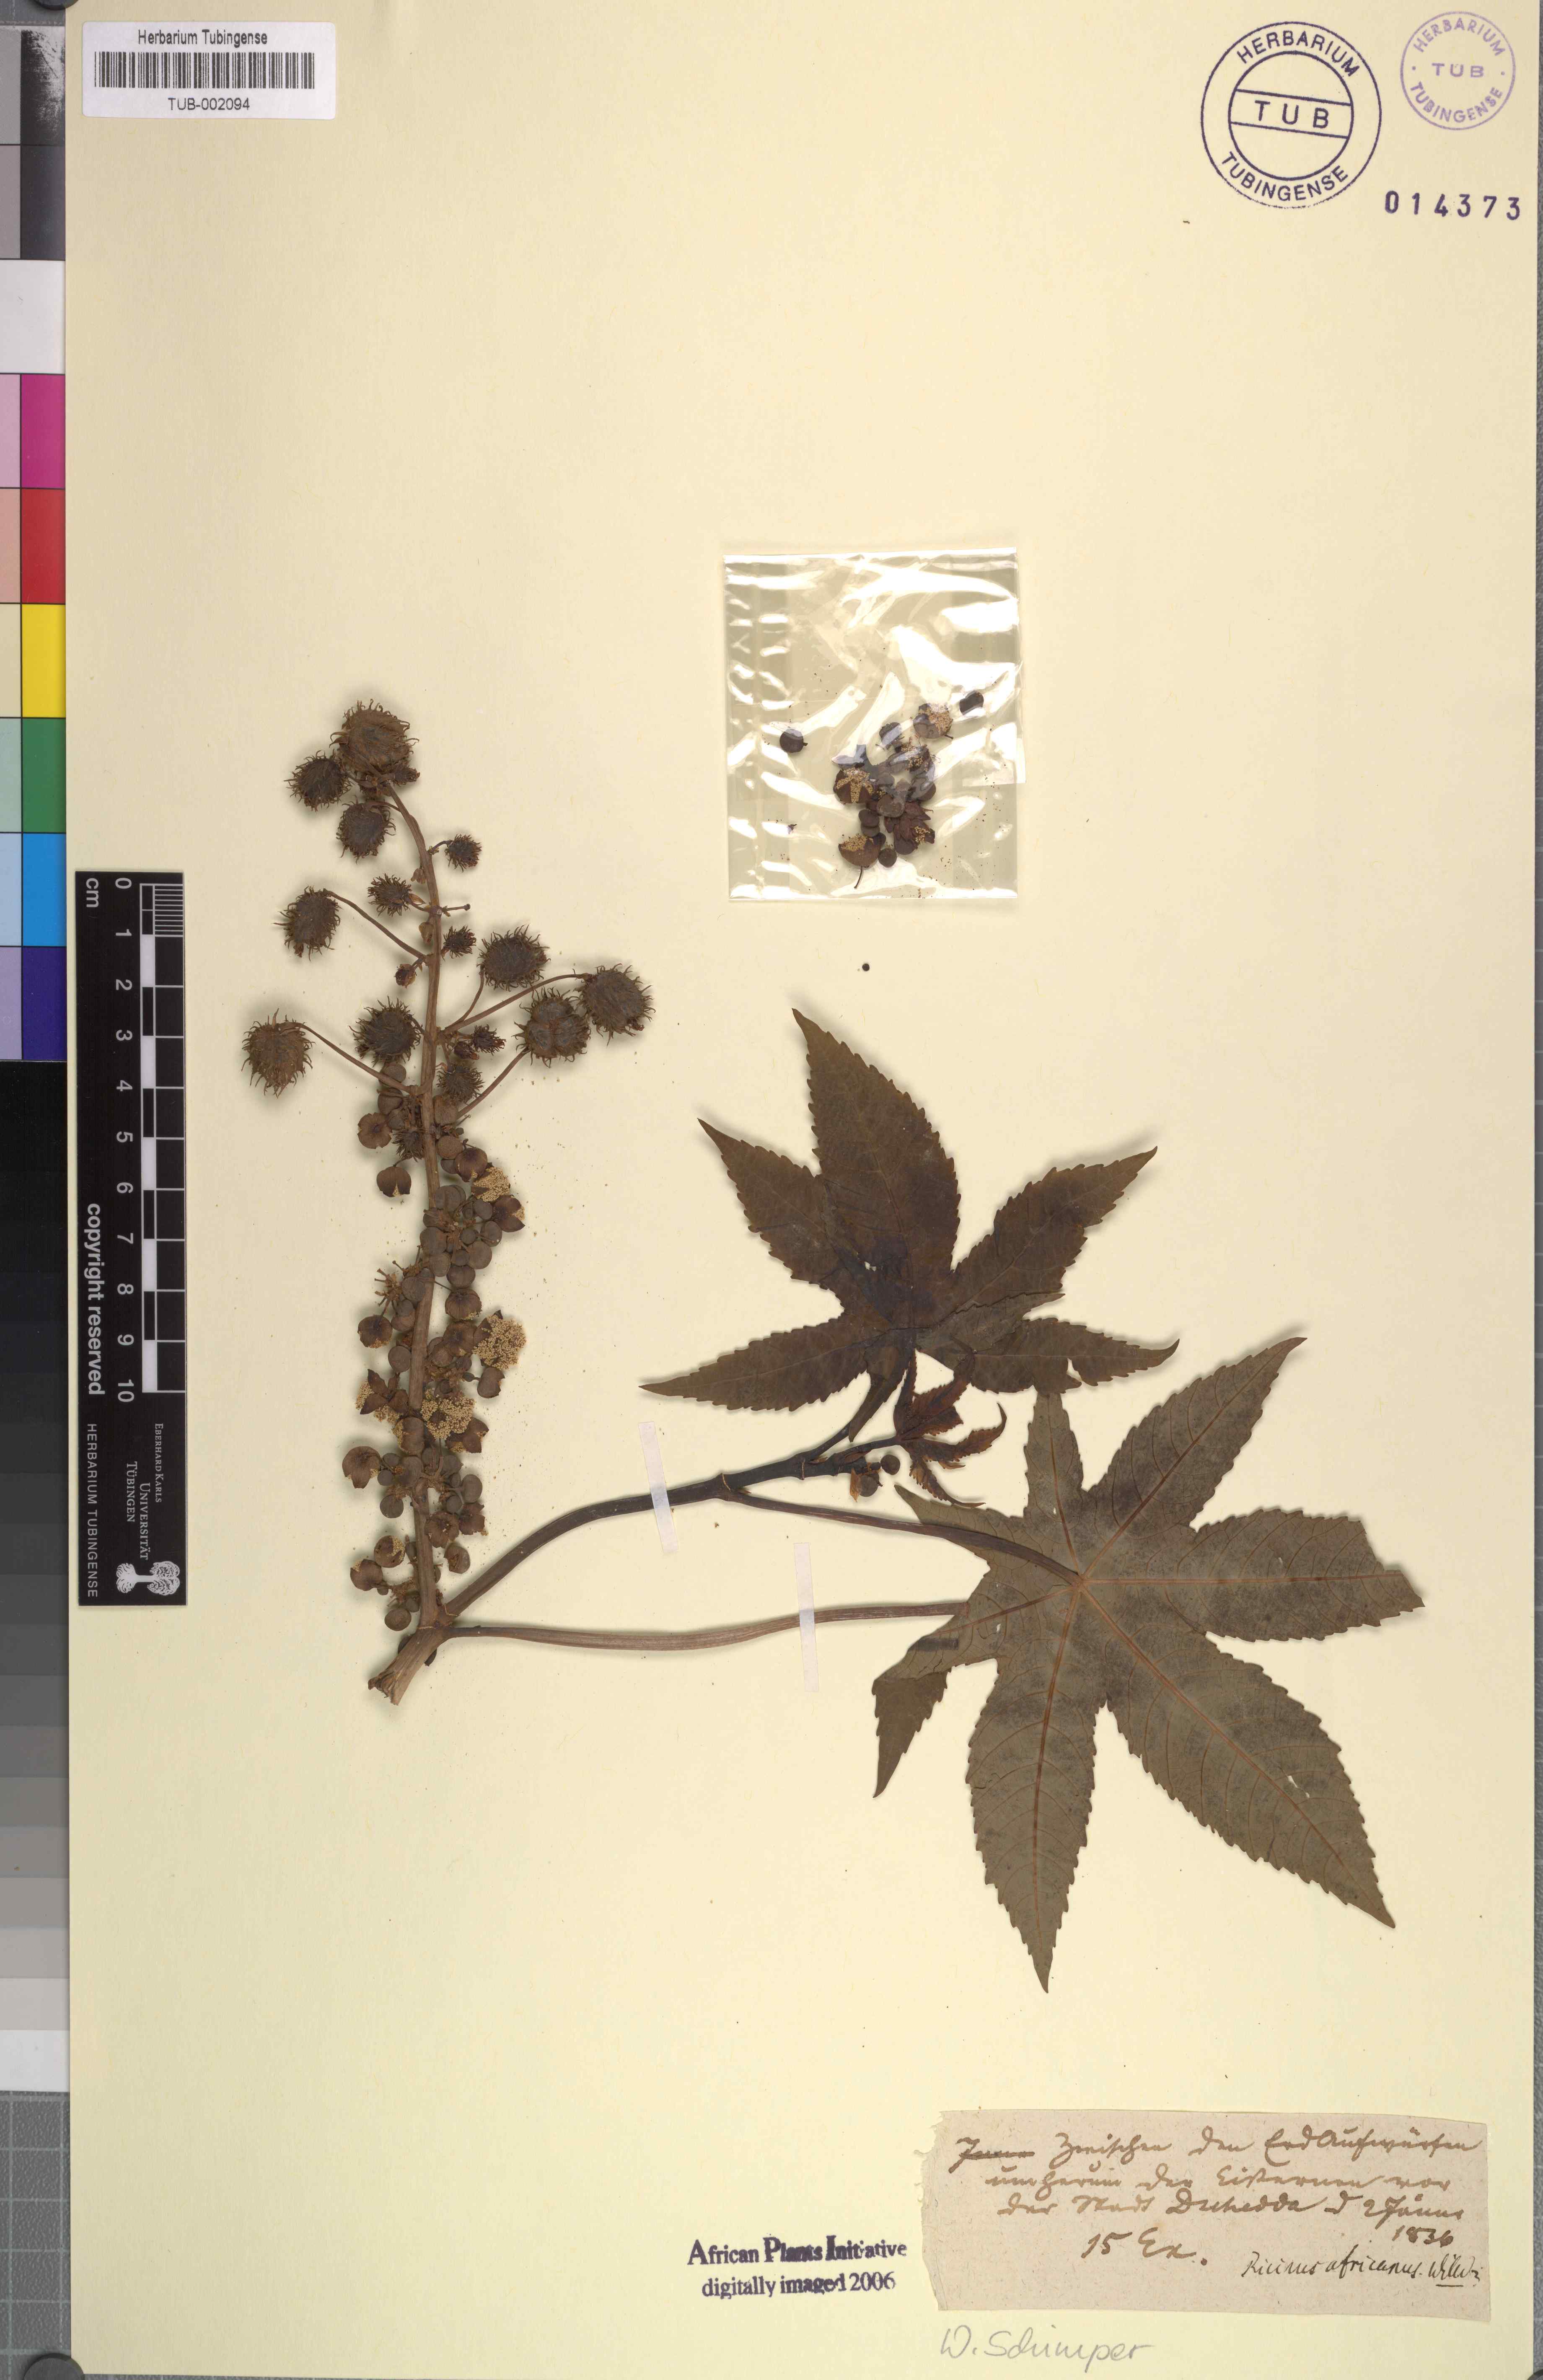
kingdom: Plantae
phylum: Tracheophyta
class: Magnoliopsida
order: Malpighiales
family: Euphorbiaceae
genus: Ricinus
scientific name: Ricinus communis
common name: Castor-oil-plant
